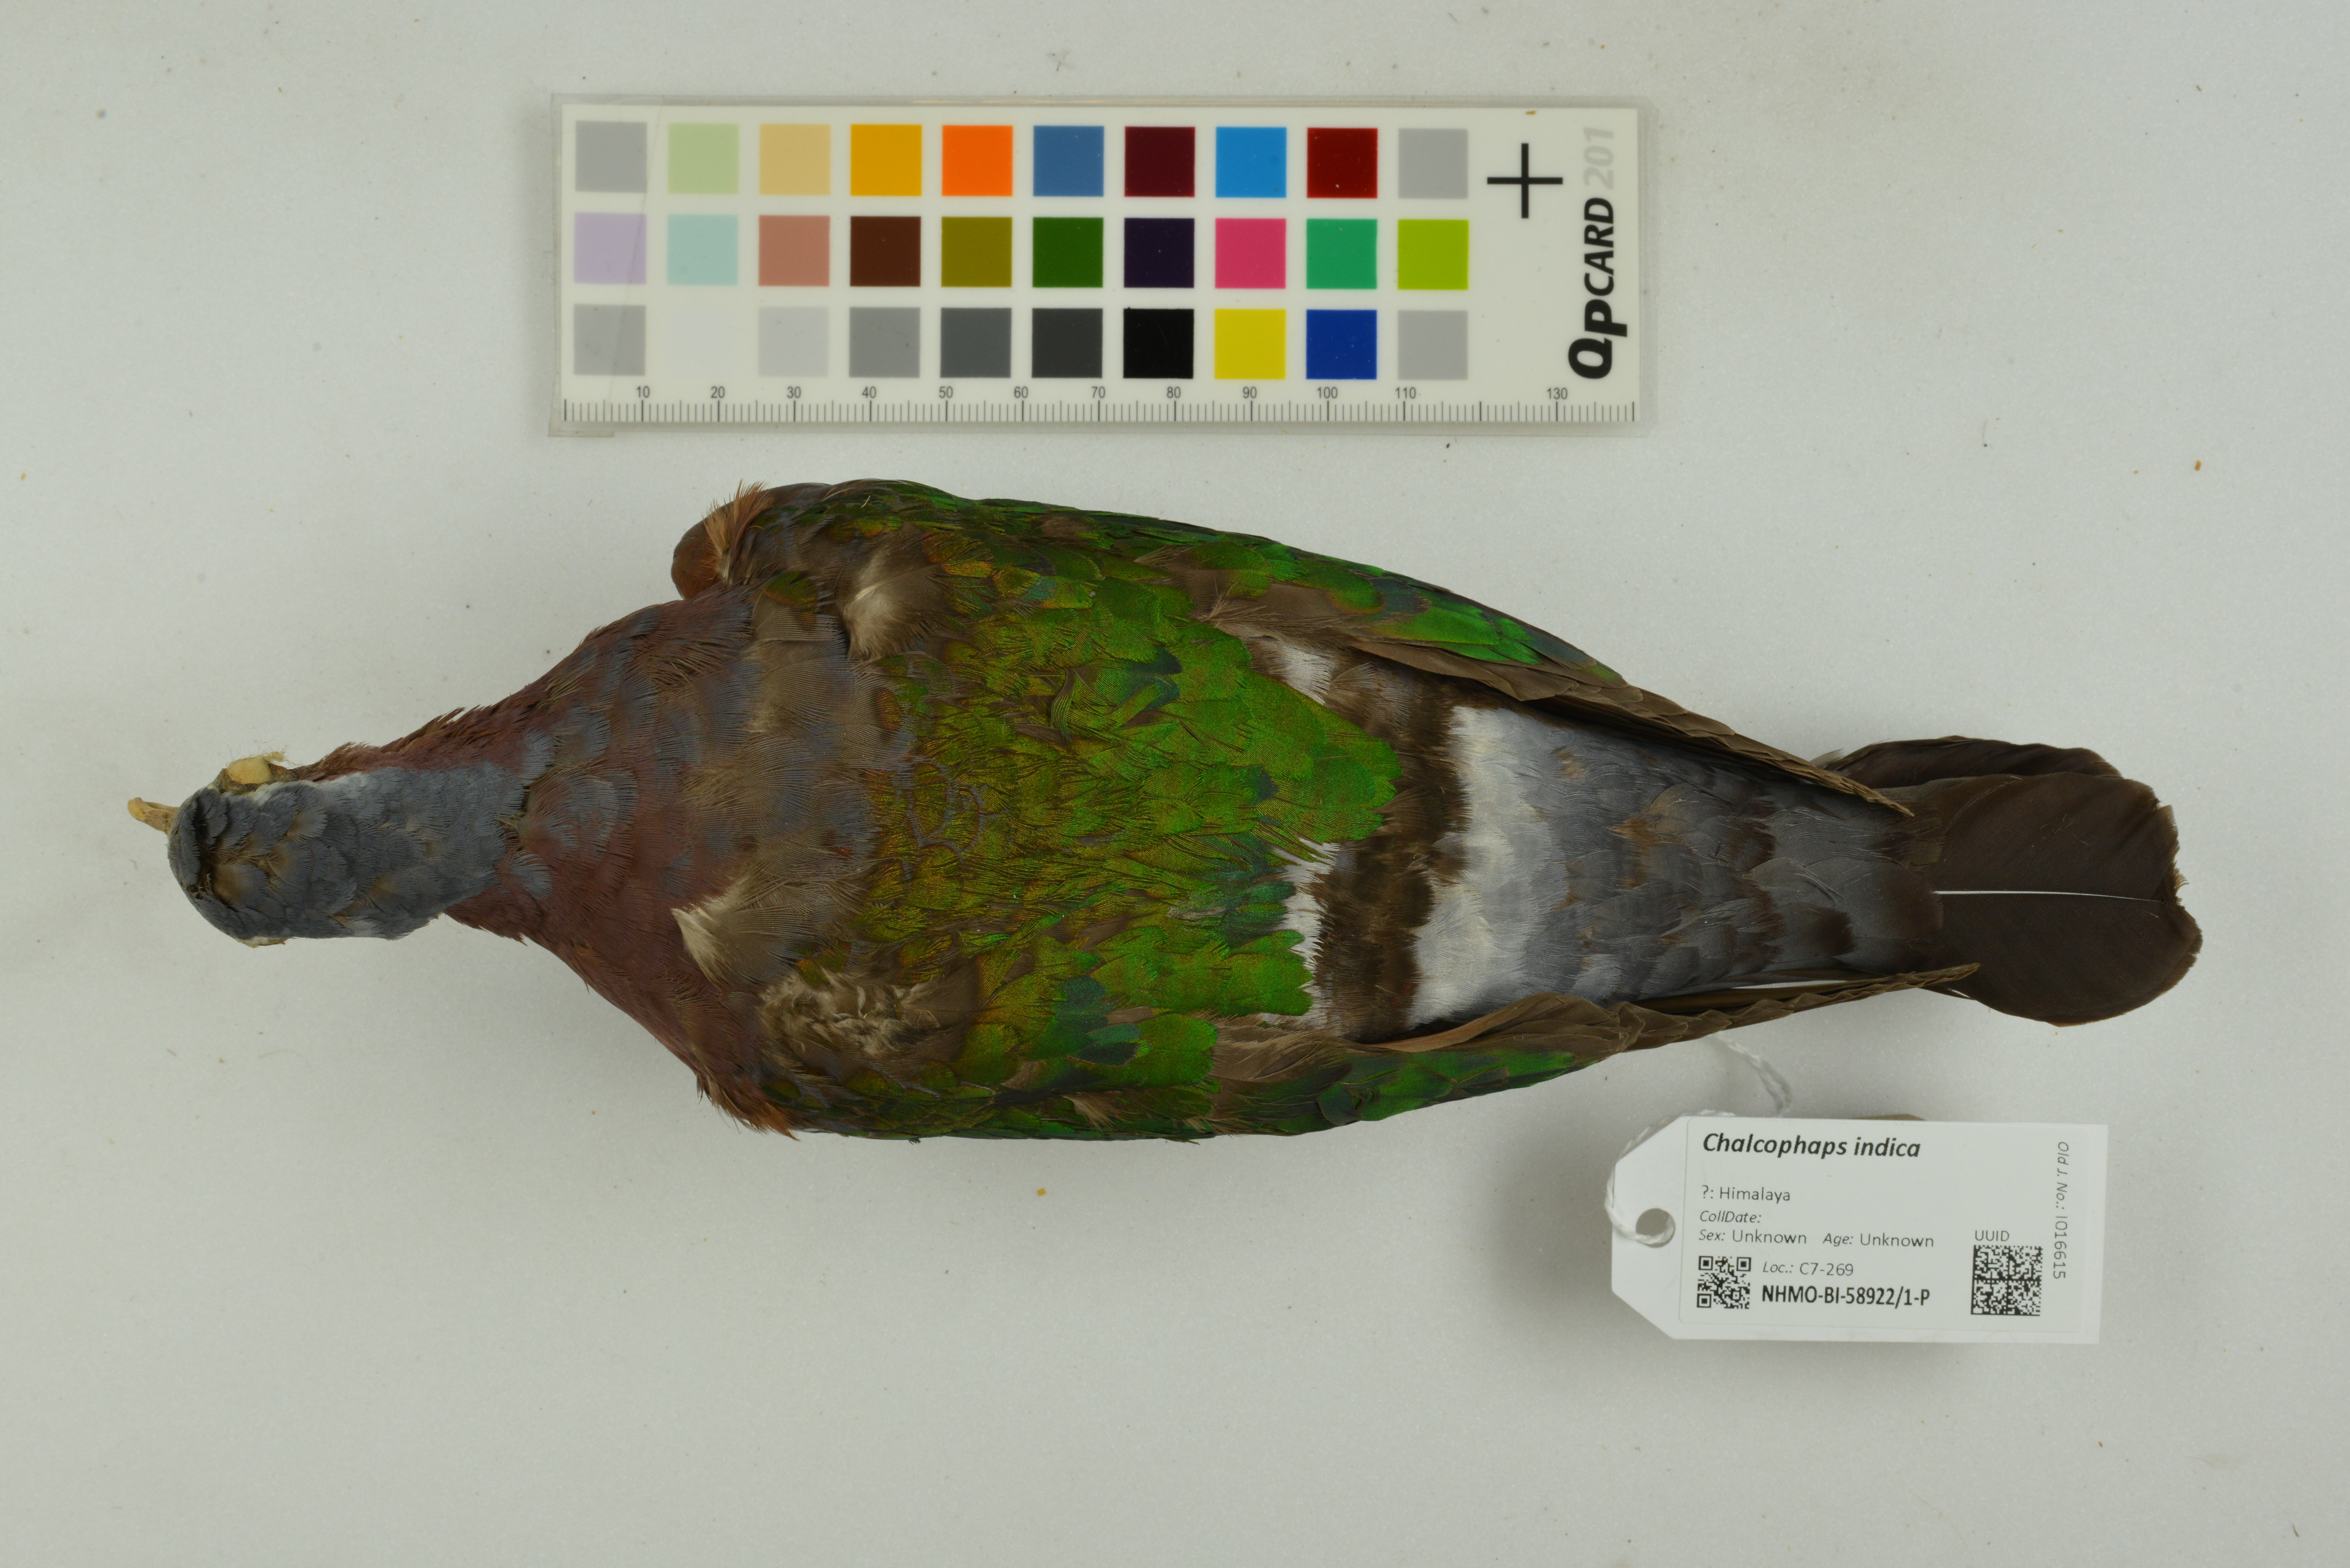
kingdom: Animalia
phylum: Chordata
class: Aves
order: Columbiformes
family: Columbidae
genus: Chalcophaps
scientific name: Chalcophaps indica
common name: Common emerald dove
